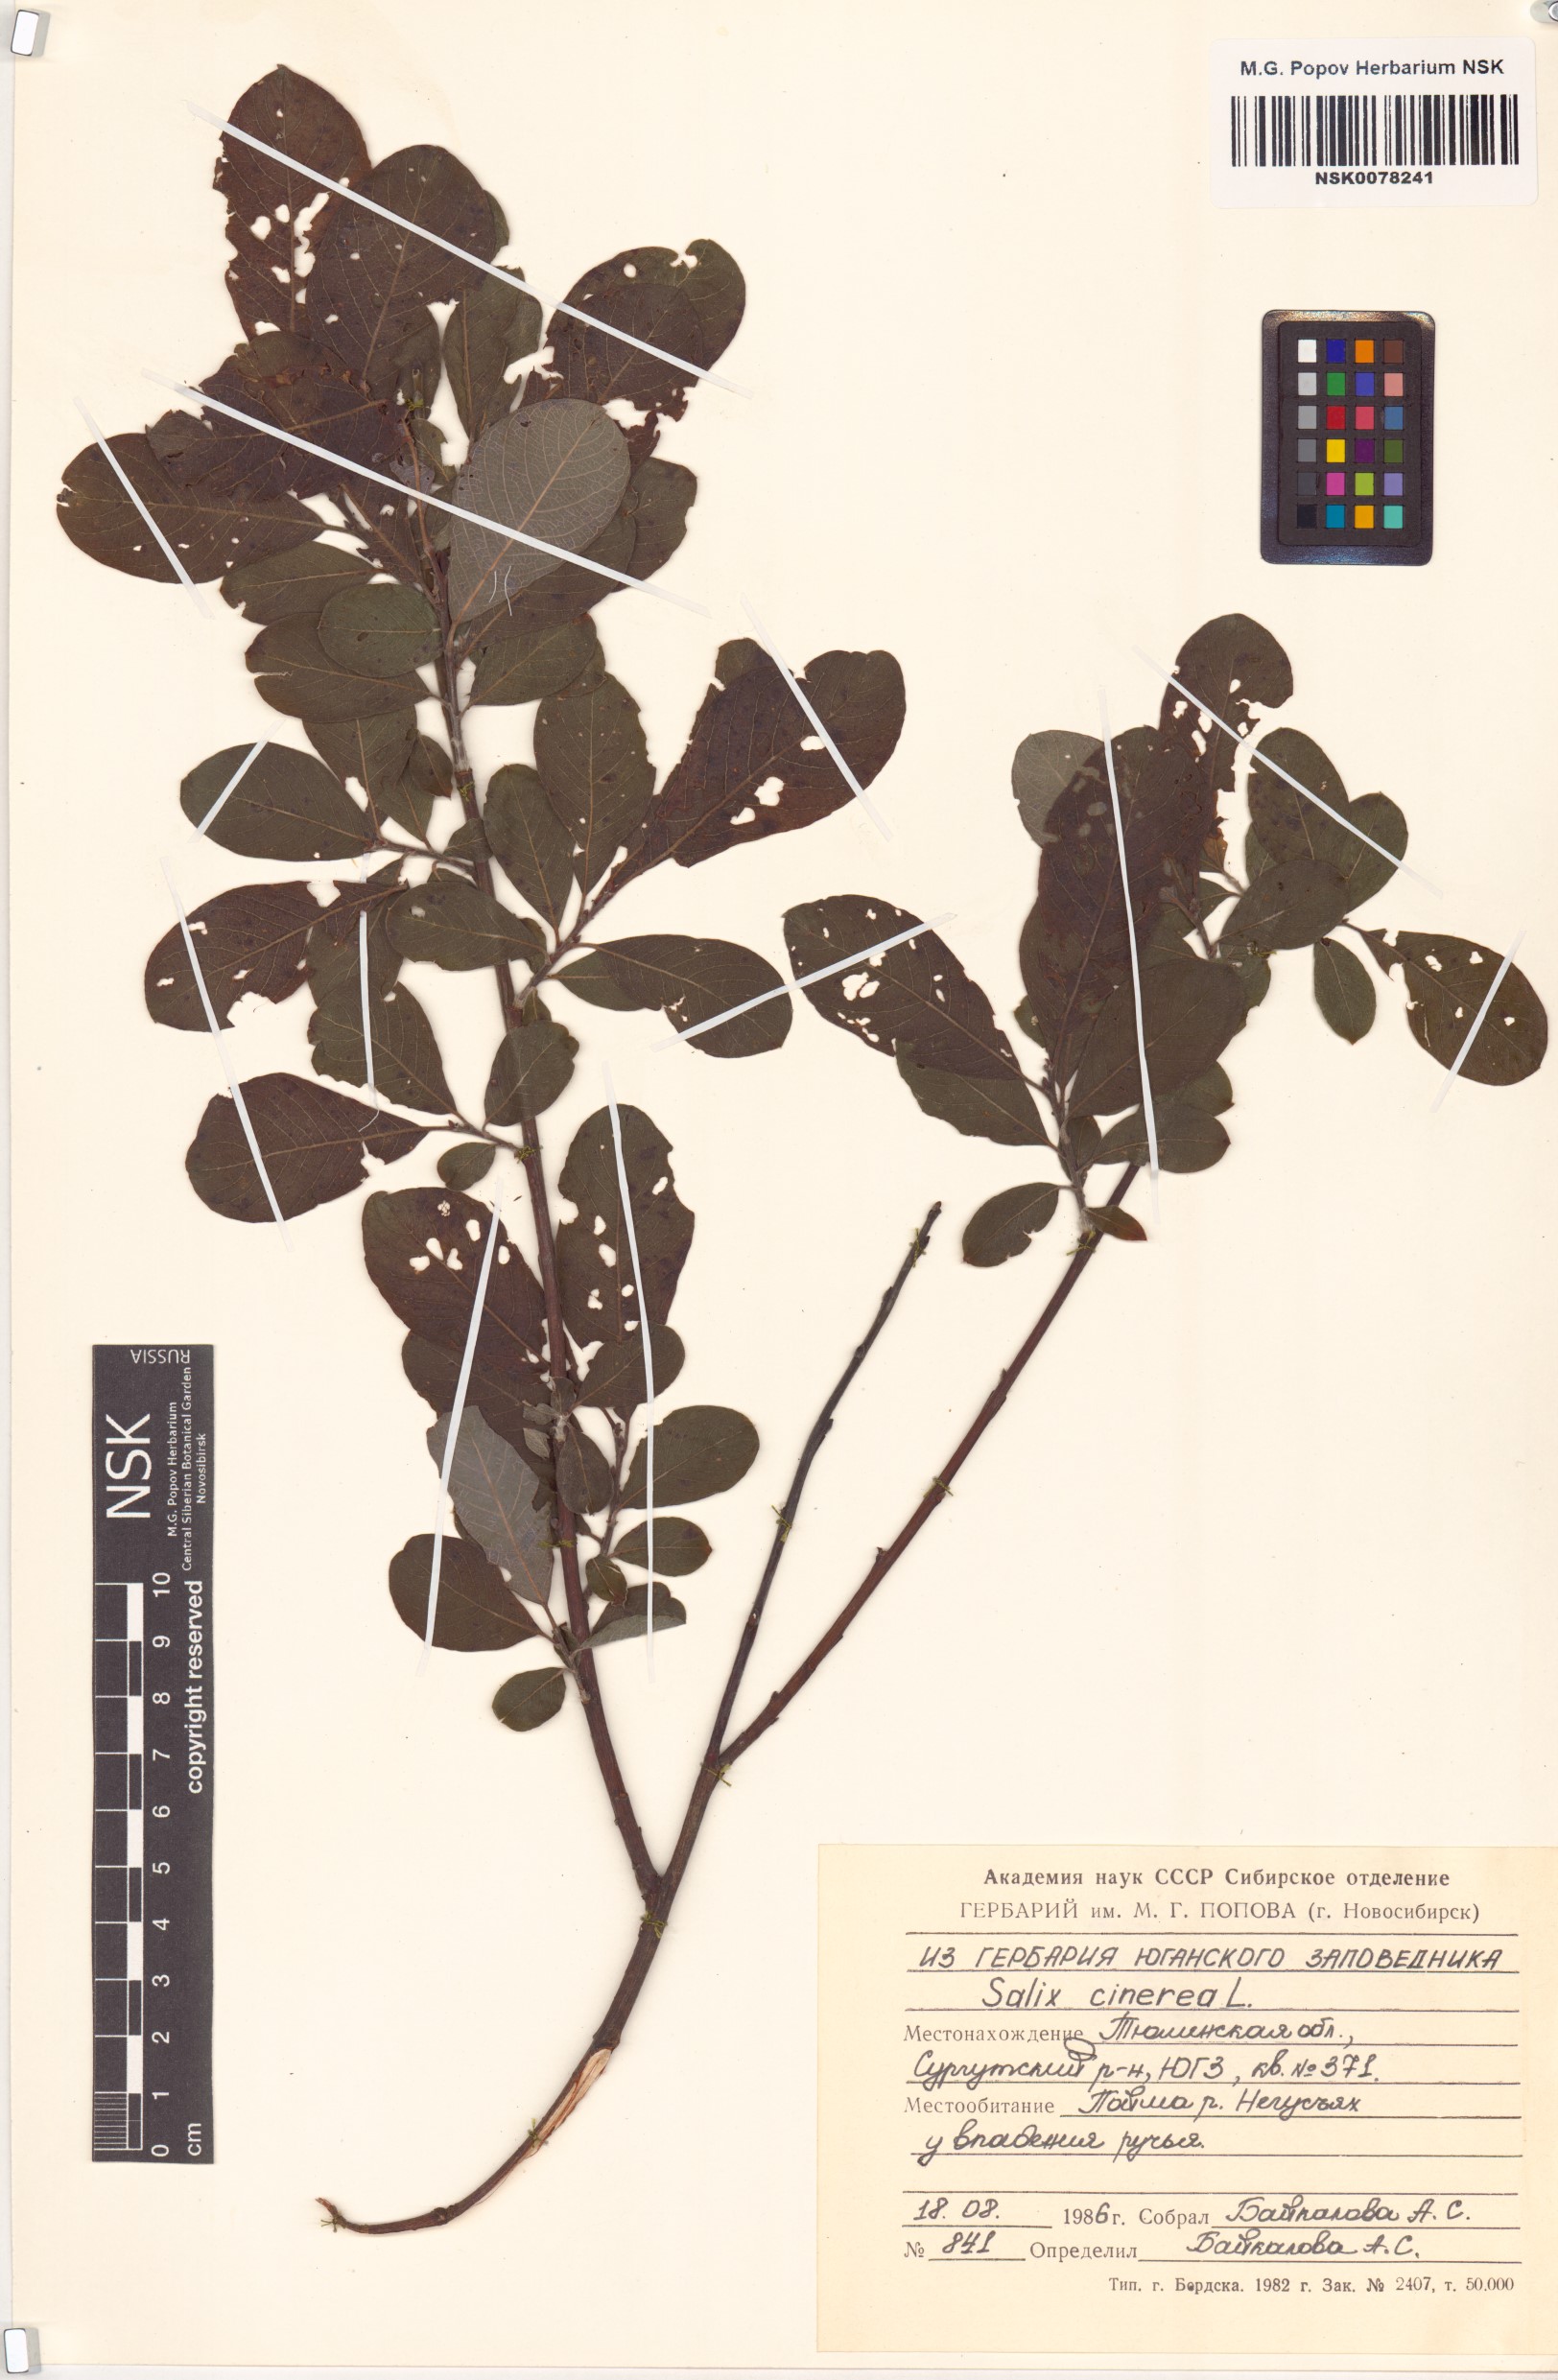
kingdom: Plantae
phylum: Tracheophyta
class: Magnoliopsida
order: Malpighiales
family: Salicaceae
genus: Salix
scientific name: Salix cinerea
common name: Common sallow
